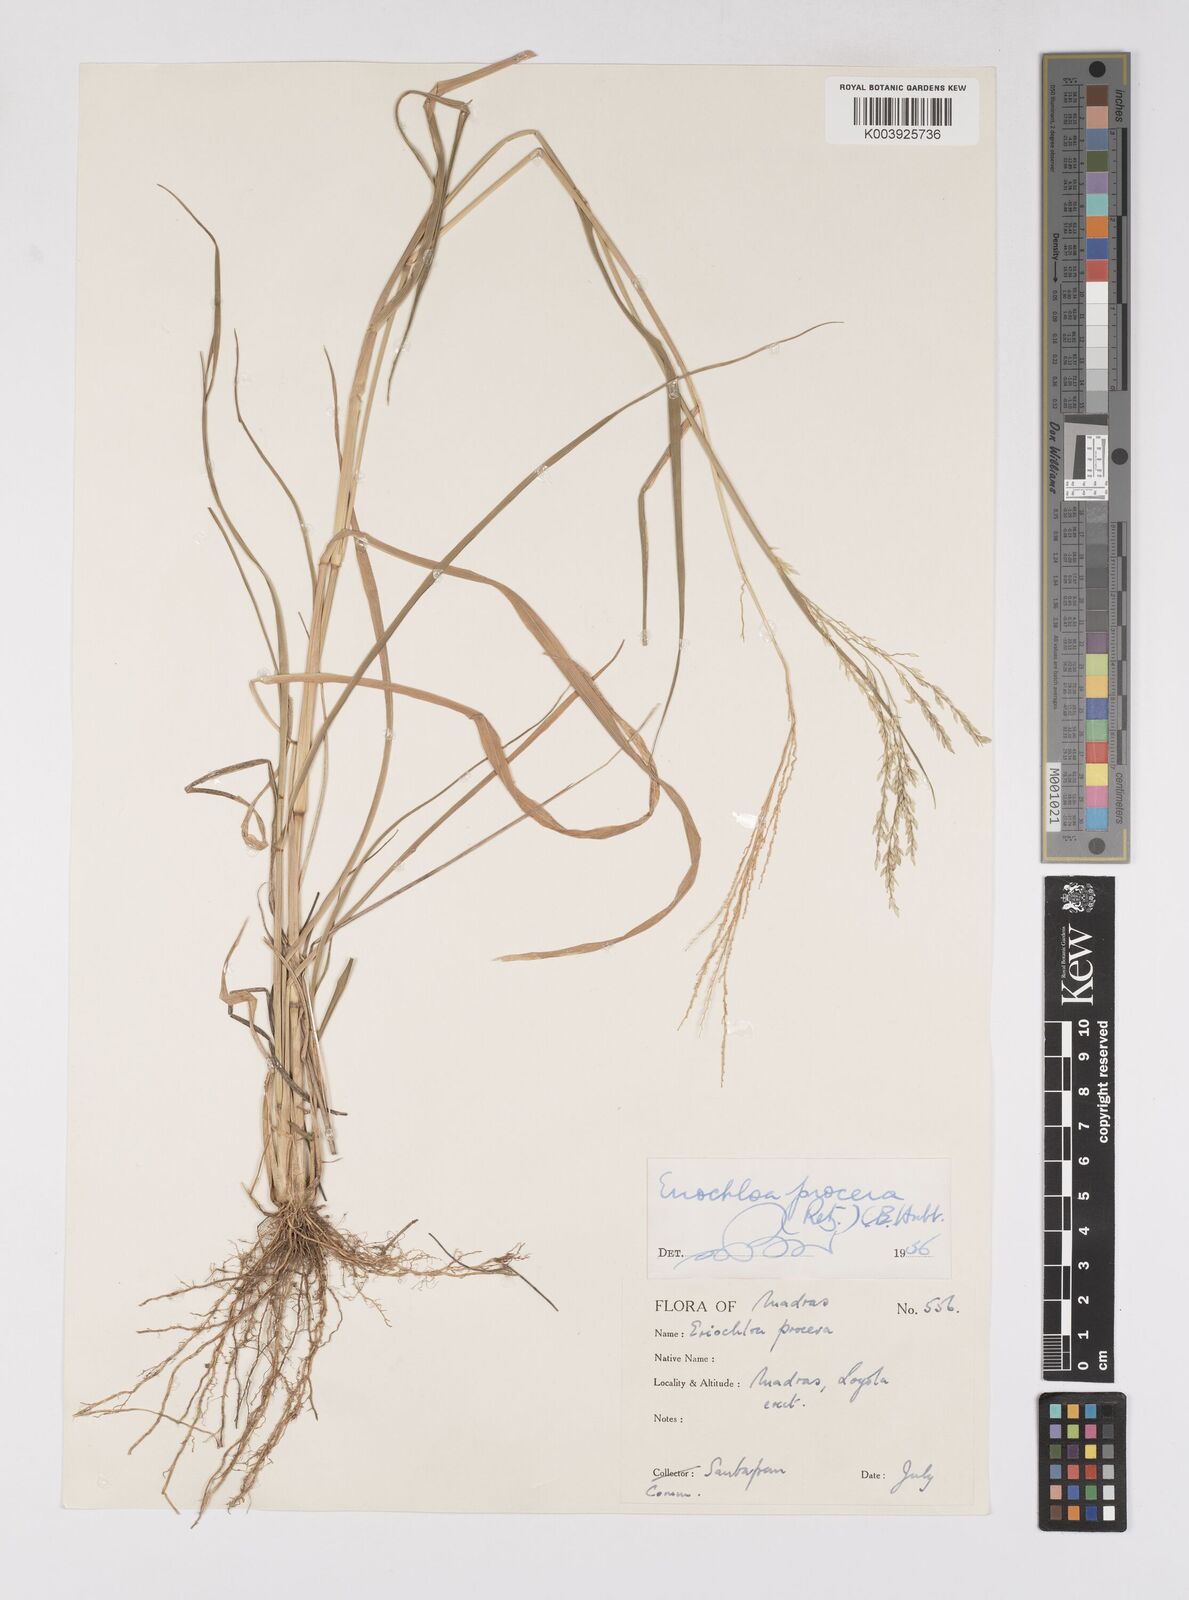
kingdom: Plantae
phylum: Tracheophyta
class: Liliopsida
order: Poales
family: Poaceae
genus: Eriochloa
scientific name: Eriochloa procera
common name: Spring grass
